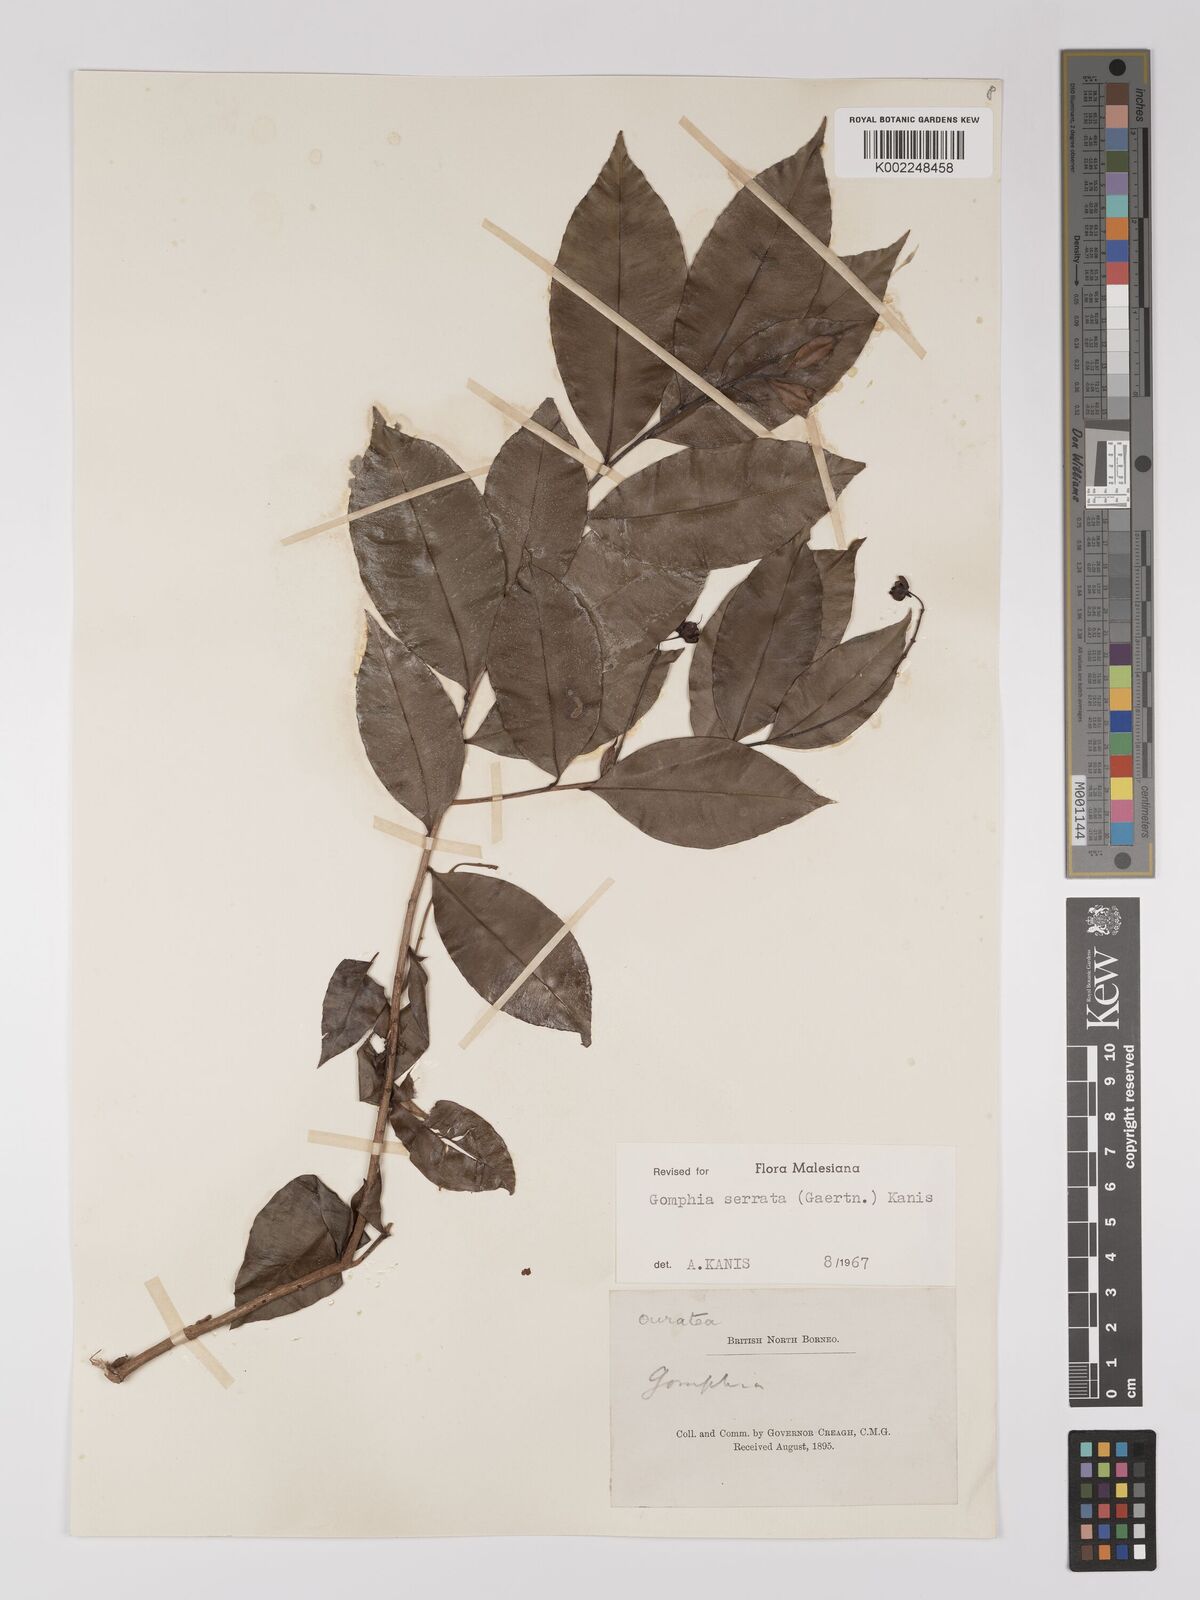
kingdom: Plantae
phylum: Tracheophyta
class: Magnoliopsida
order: Malpighiales
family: Ochnaceae
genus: Gomphia
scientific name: Gomphia serrata
